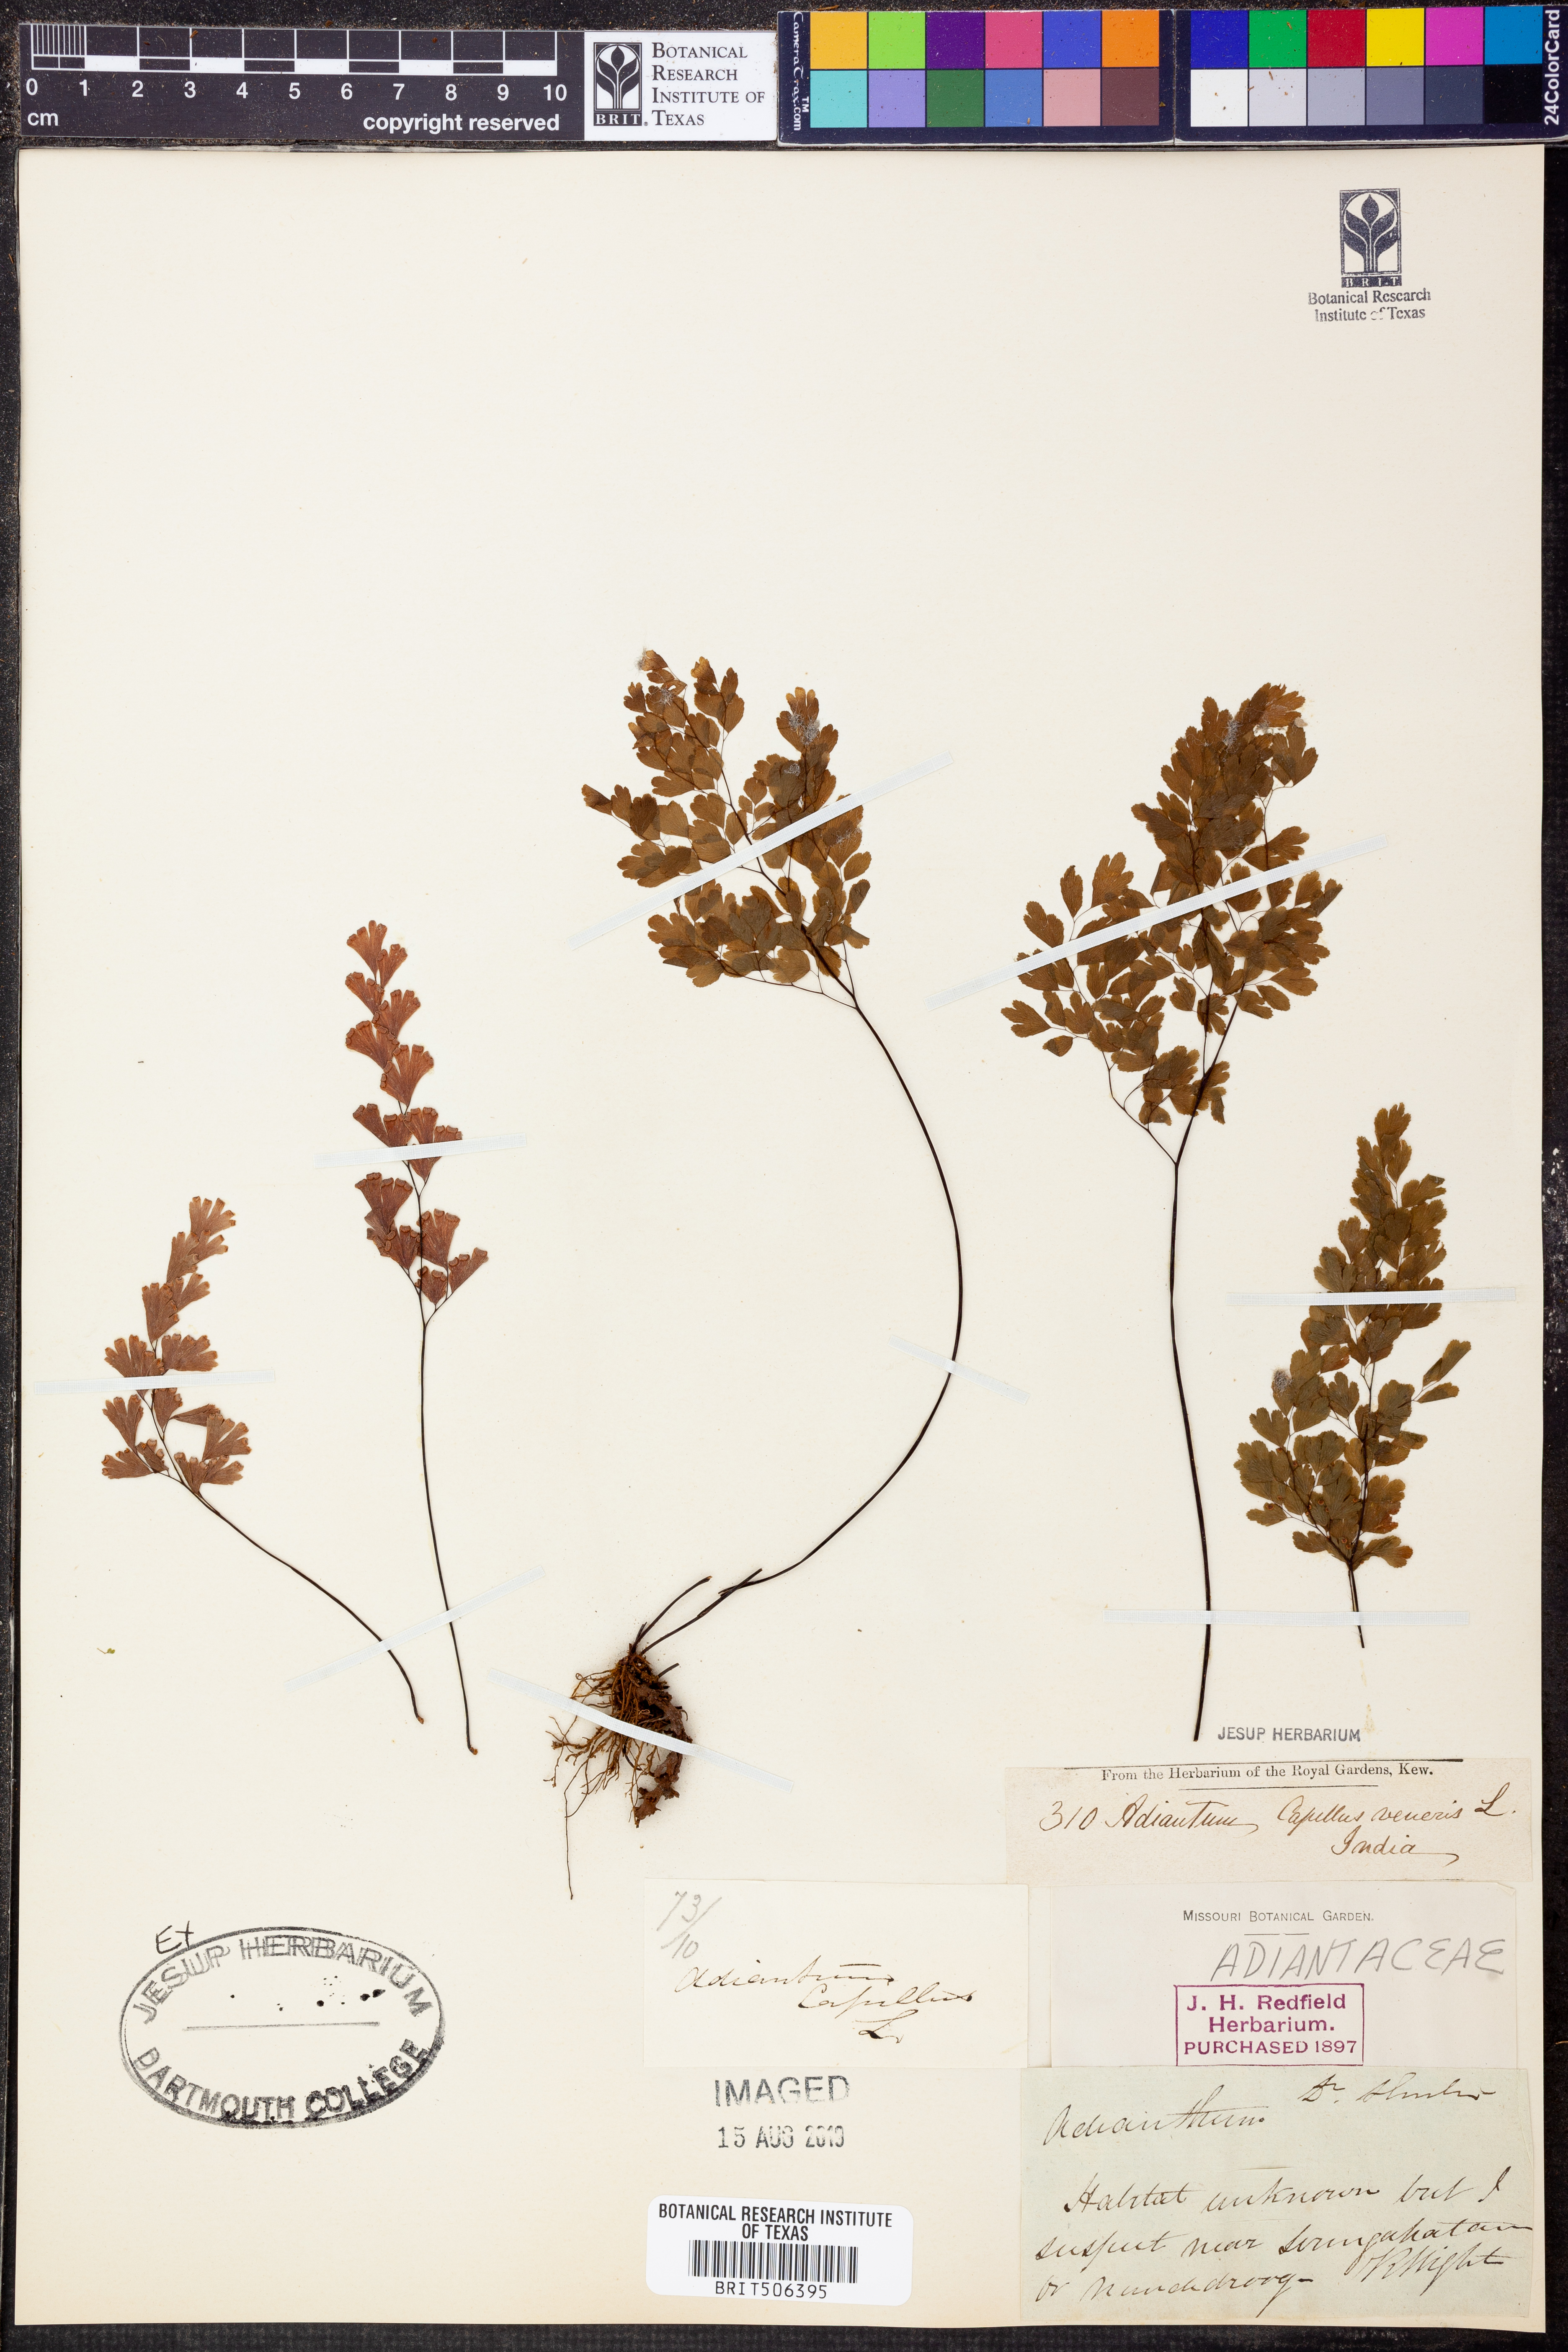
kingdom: Plantae
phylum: Tracheophyta
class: Polypodiopsida
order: Polypodiales
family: Pteridaceae
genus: Adiantum
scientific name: Adiantum capillus-veneris
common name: Maidenhair fern
